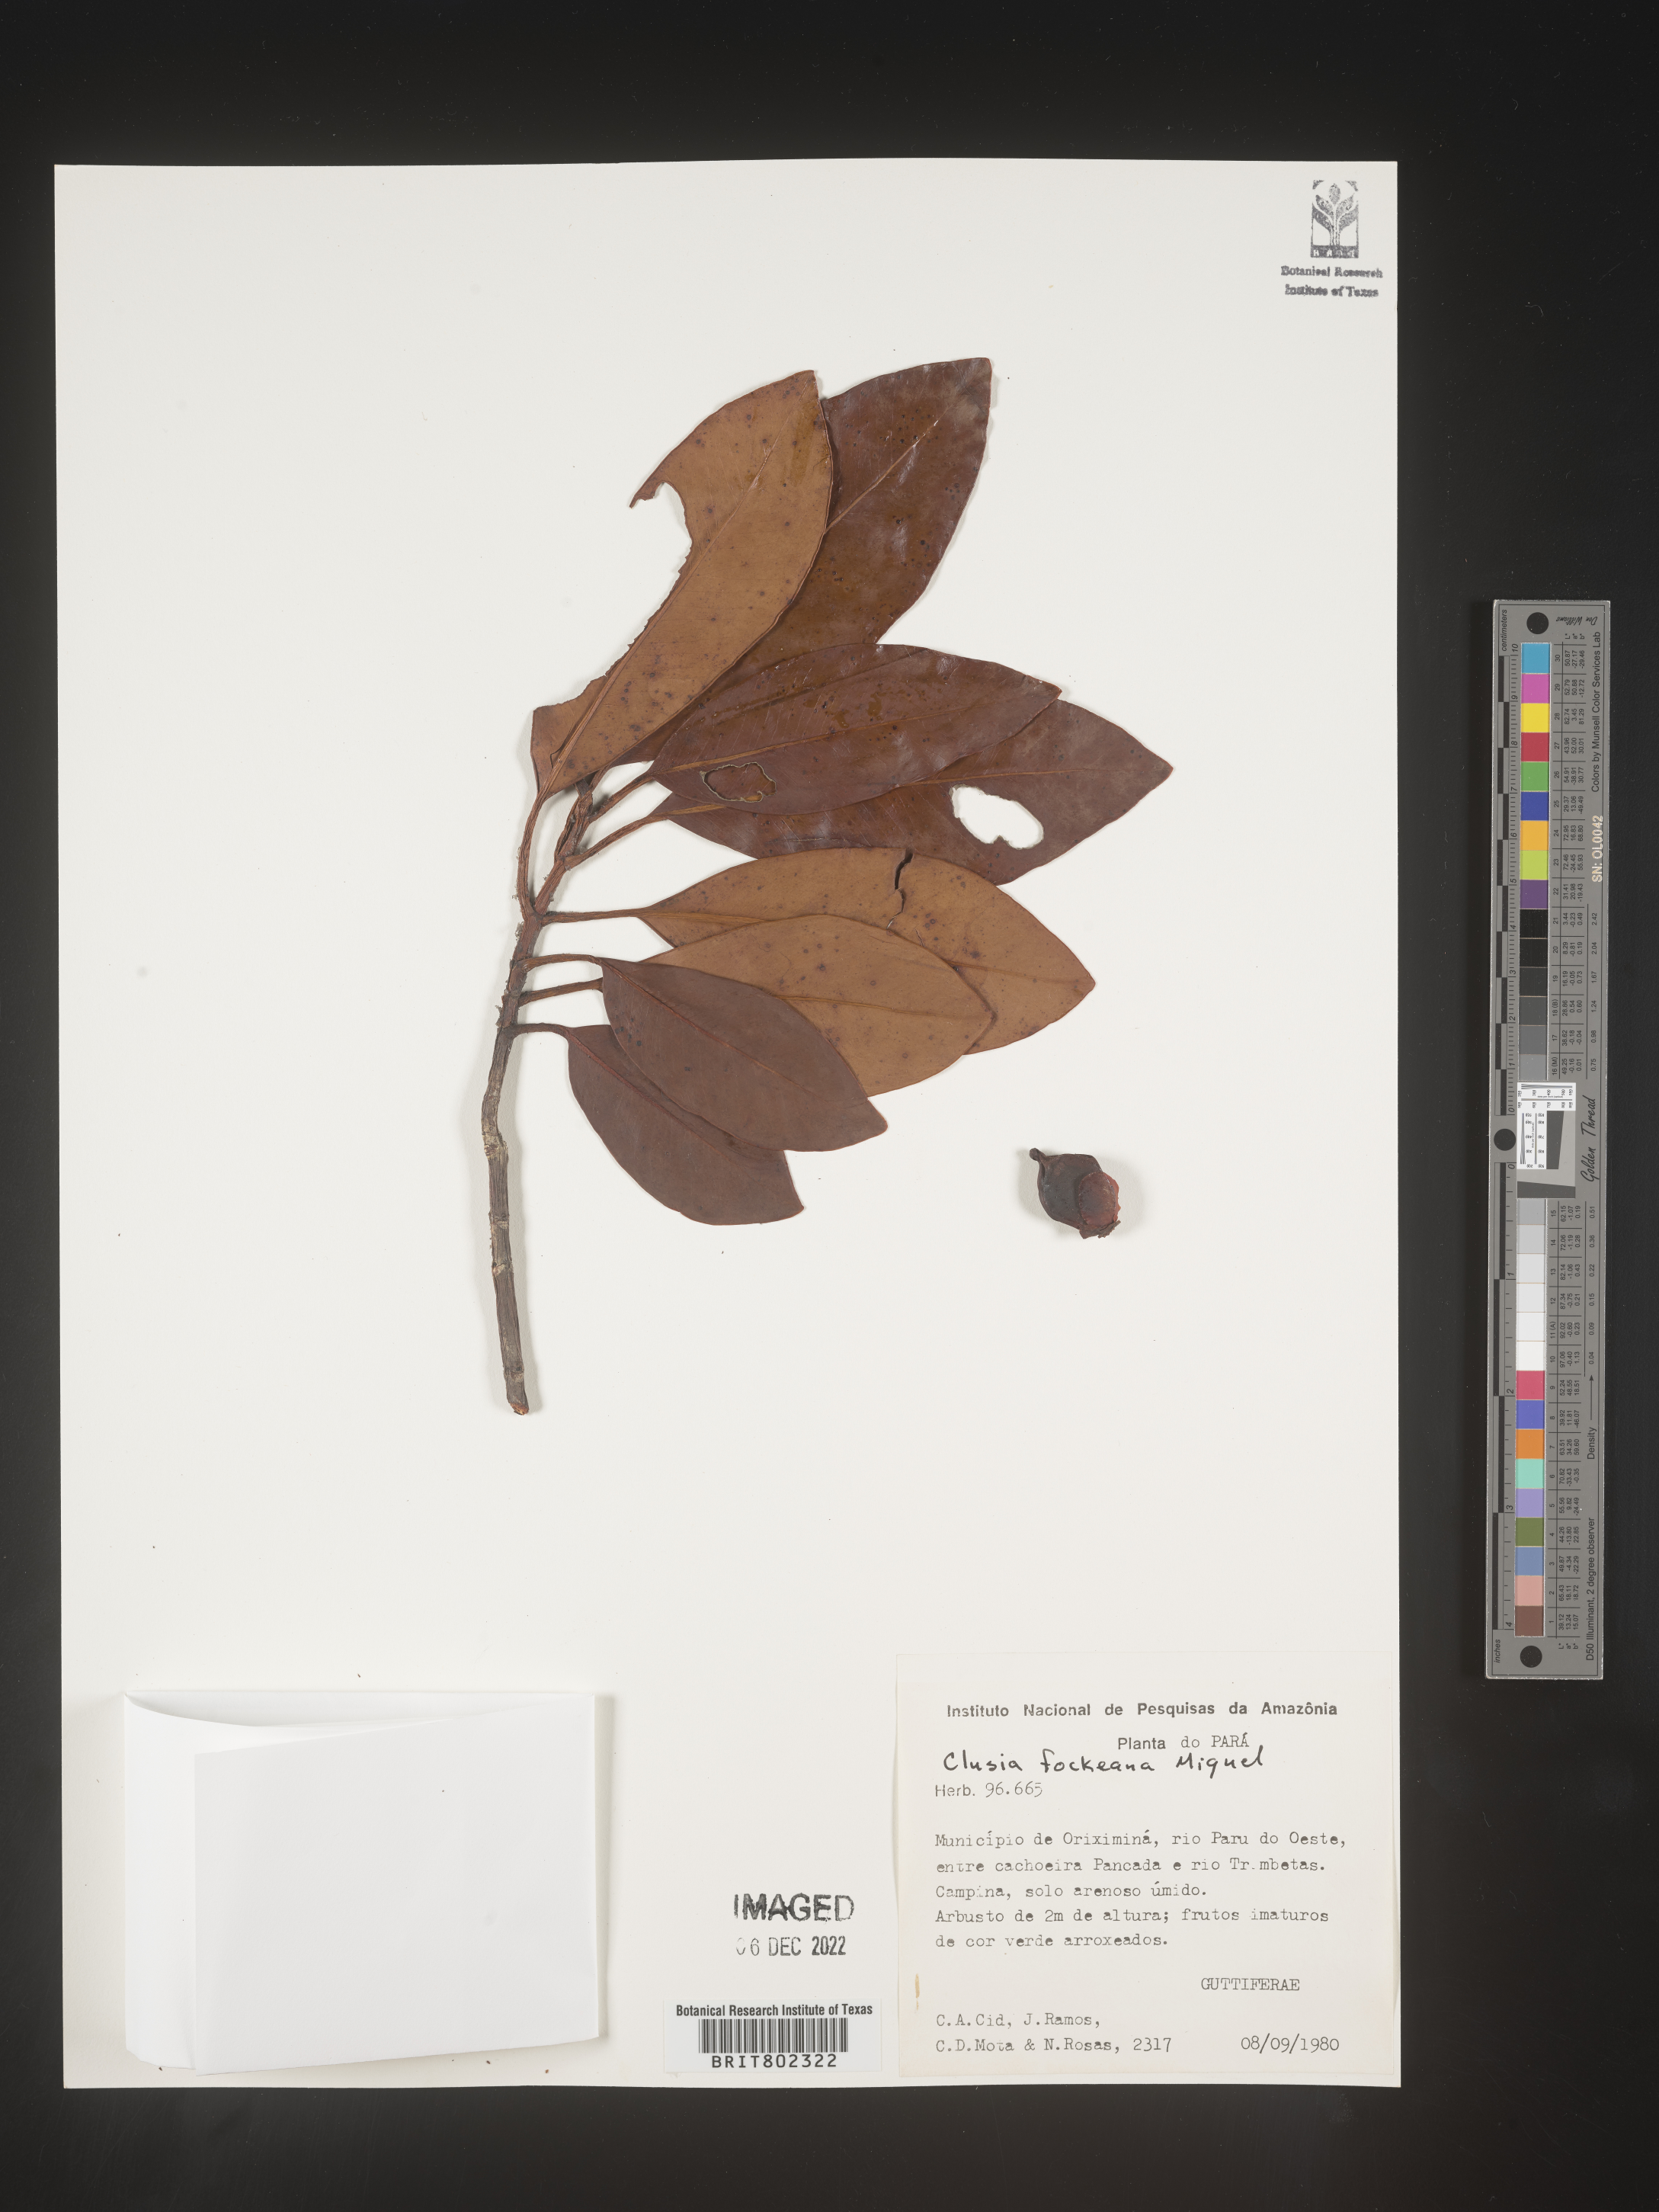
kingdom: Plantae
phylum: Tracheophyta
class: Magnoliopsida
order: Malpighiales
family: Clusiaceae
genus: Clusia
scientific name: Clusia
